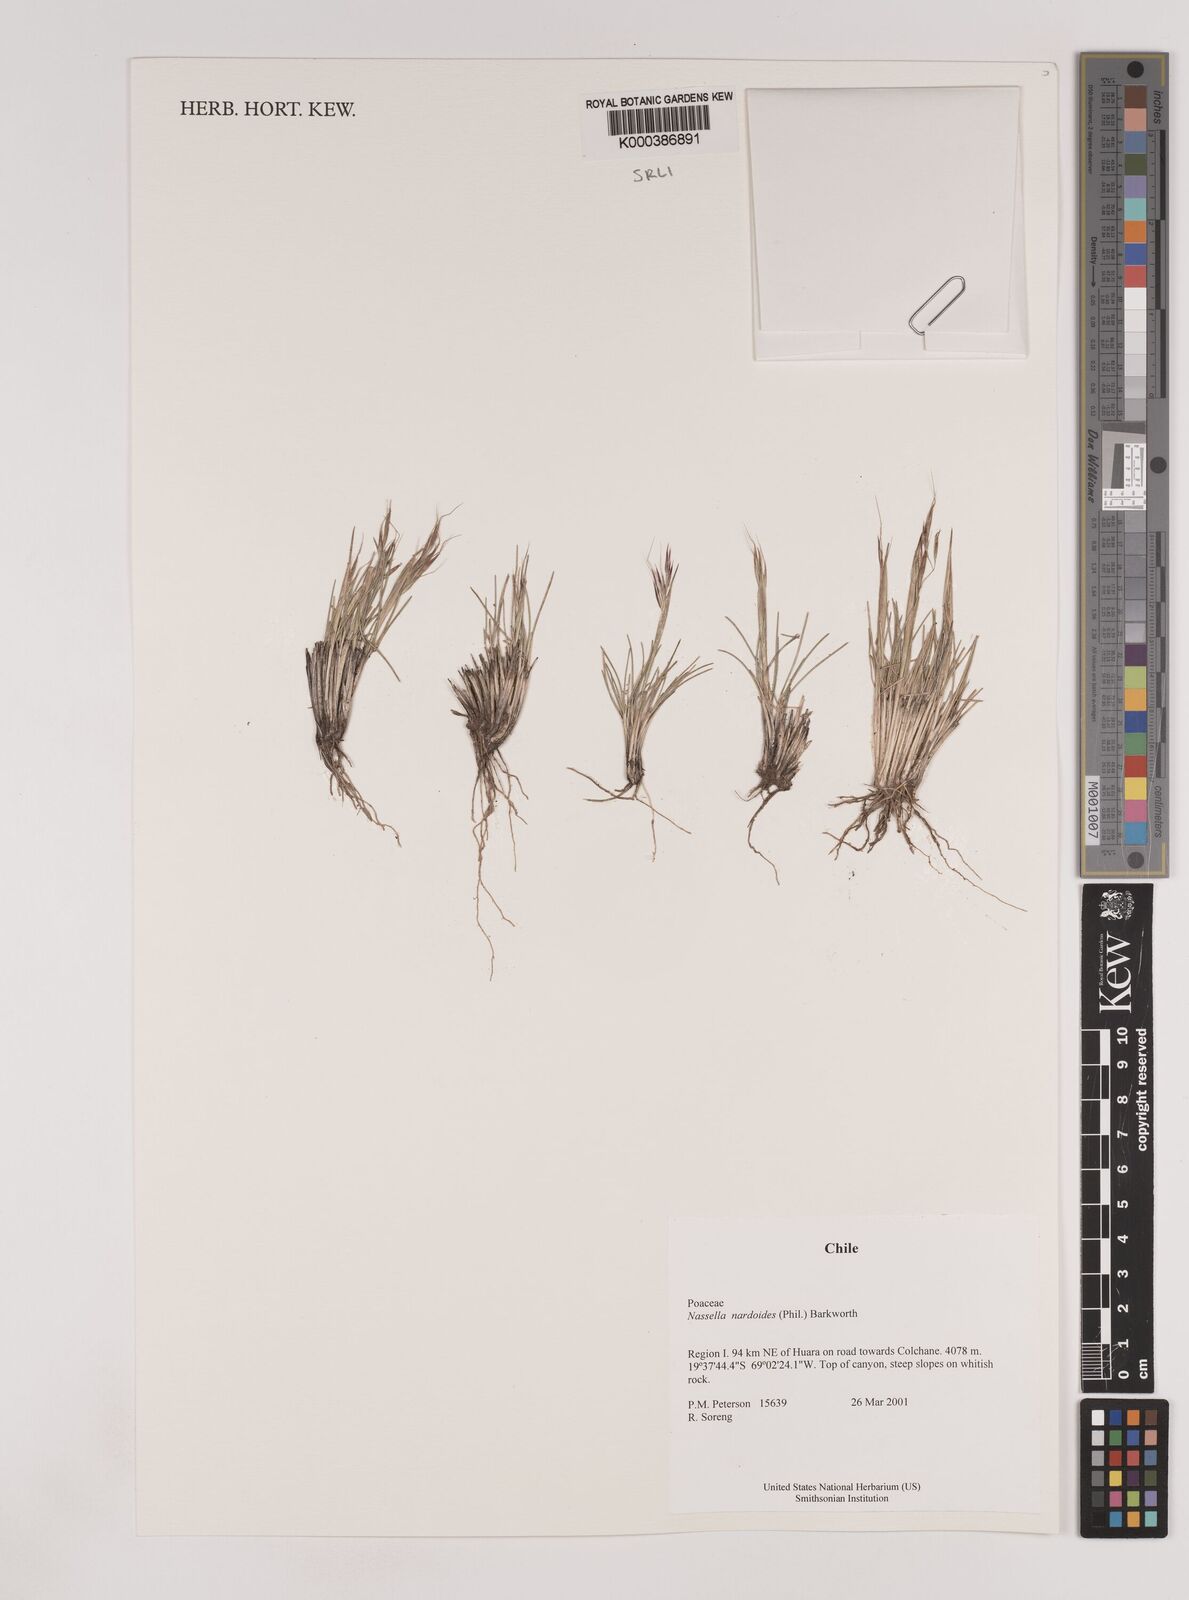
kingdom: Plantae
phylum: Tracheophyta
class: Liliopsida
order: Poales
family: Poaceae
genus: Nassella
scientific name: Nassella nardoides
